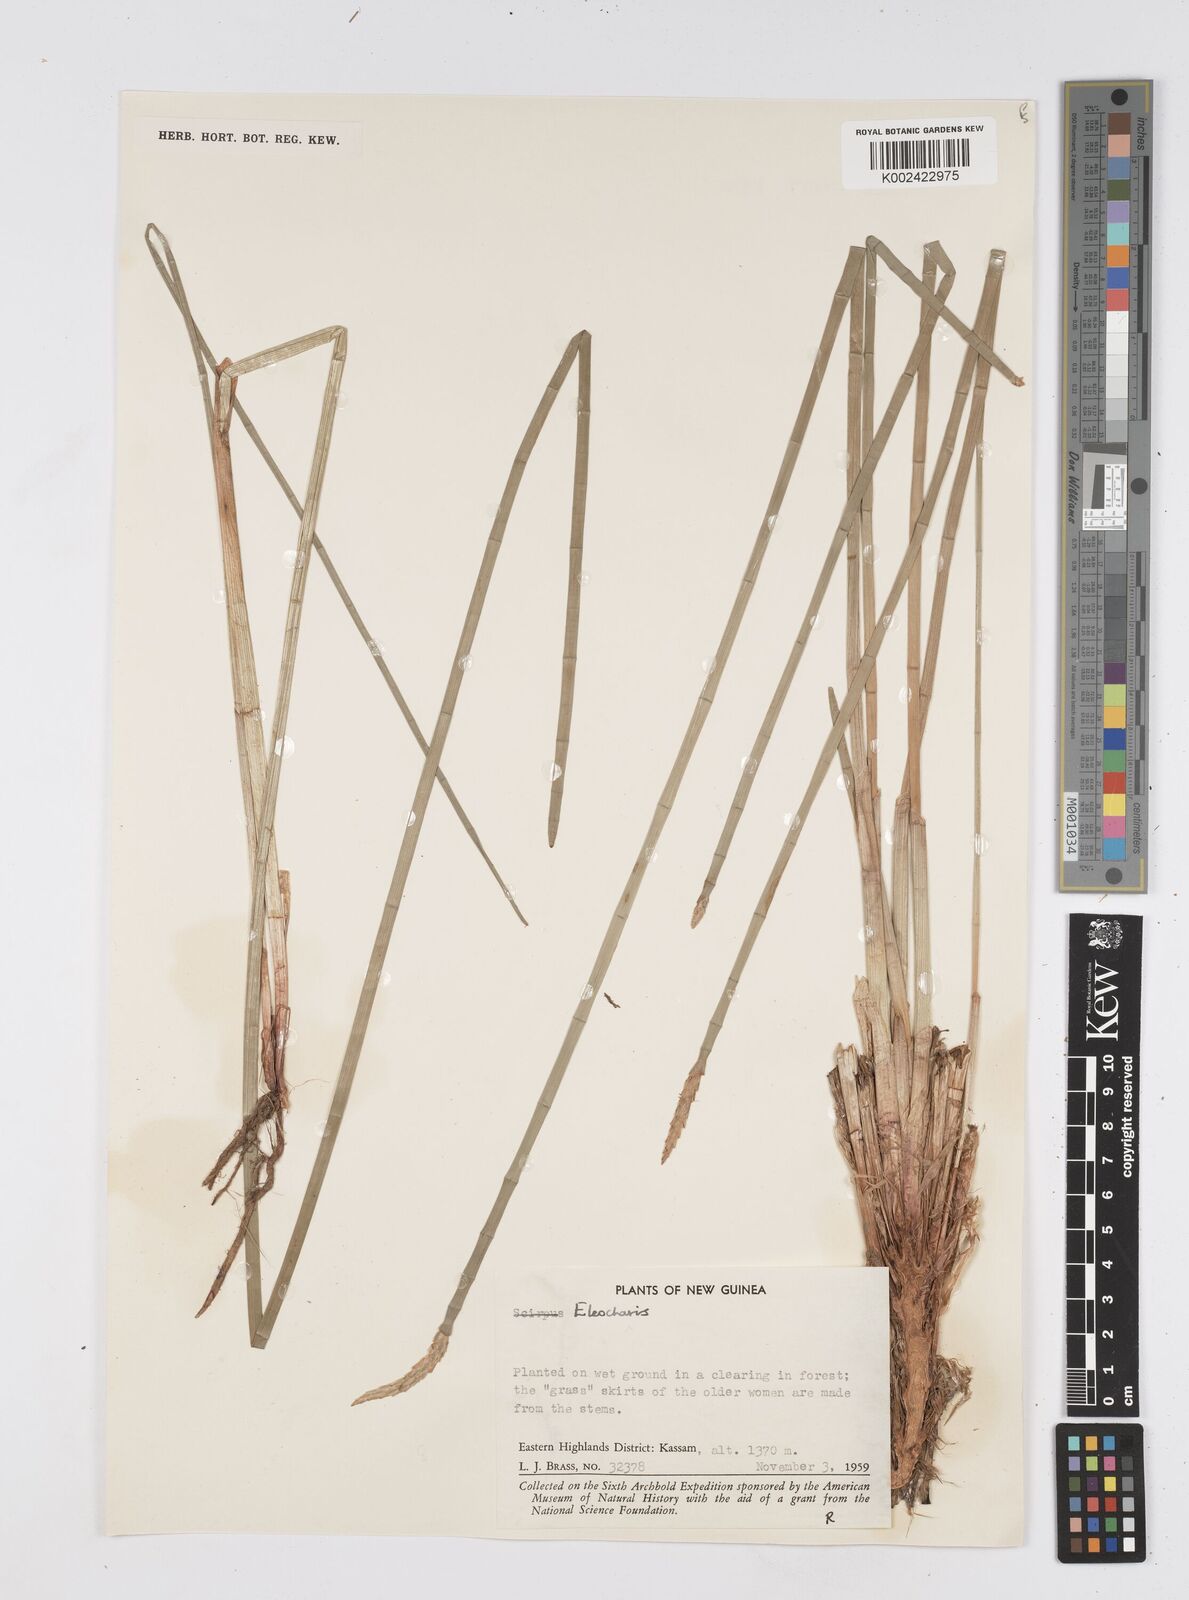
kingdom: Plantae
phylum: Tracheophyta
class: Liliopsida
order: Poales
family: Cyperaceae
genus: Eleocharis
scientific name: Eleocharis dulcis
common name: Chinese water chestnut
